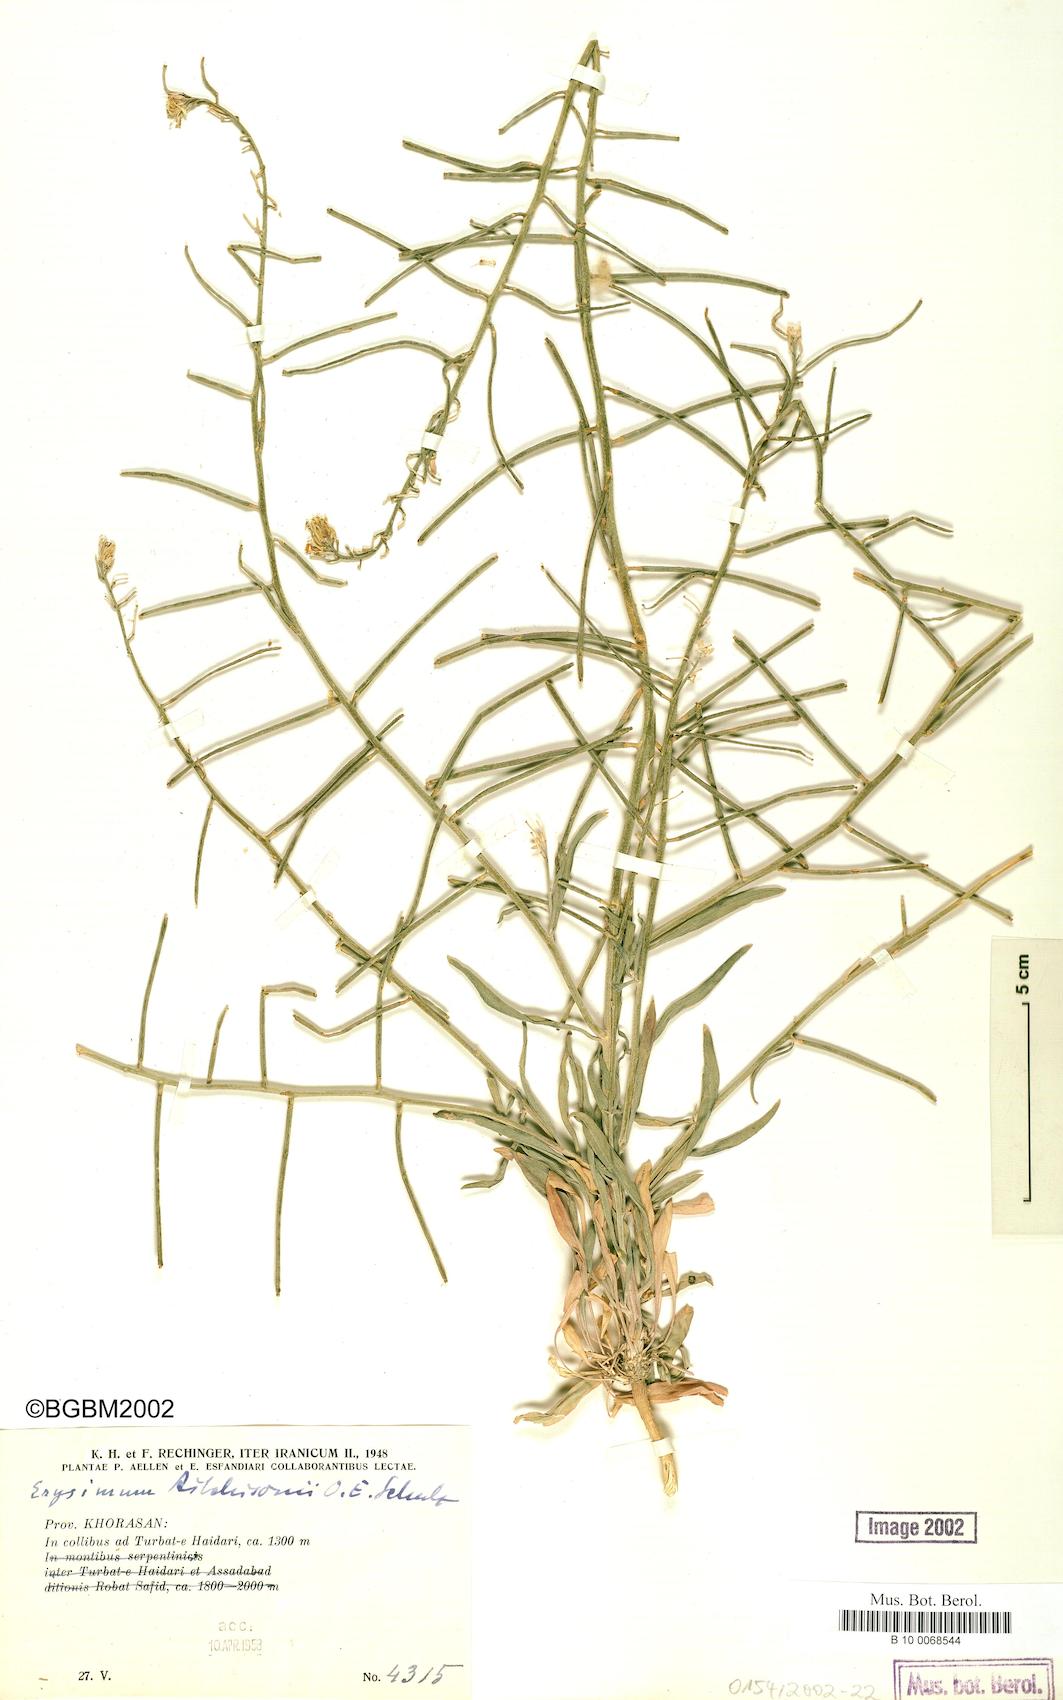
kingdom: Plantae
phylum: Tracheophyta
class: Magnoliopsida
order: Brassicales
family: Brassicaceae
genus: Erysimum
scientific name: Erysimum aitchisonii
